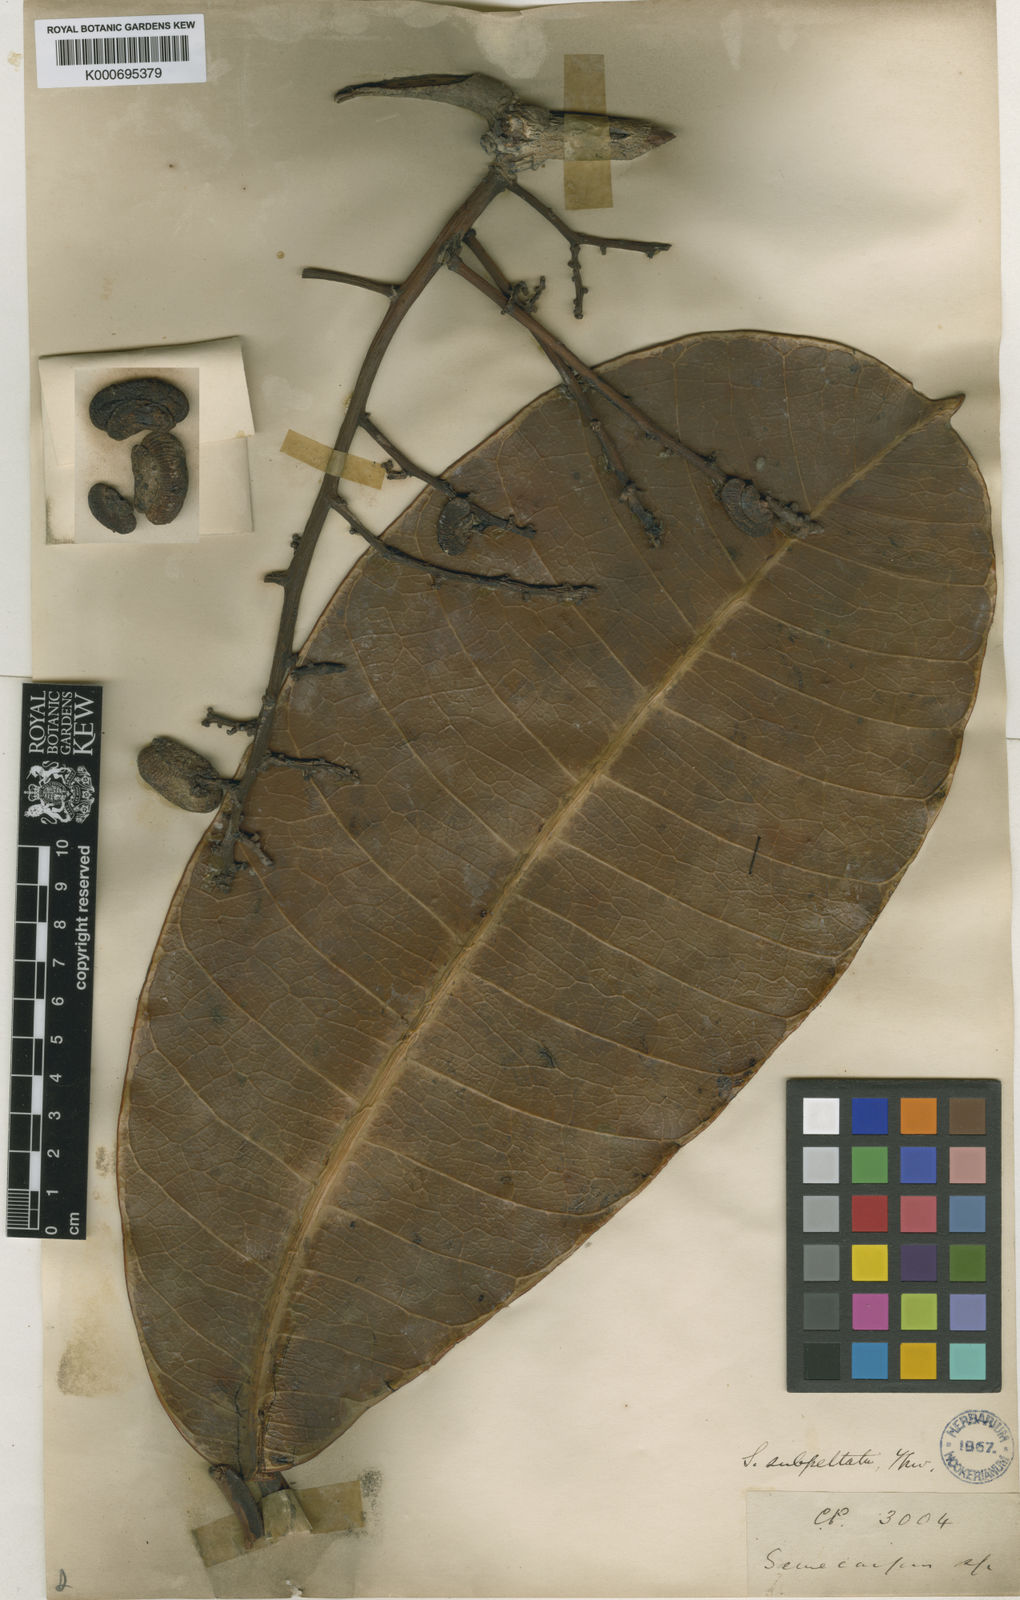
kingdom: Plantae
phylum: Tracheophyta
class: Magnoliopsida
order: Sapindales
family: Anacardiaceae
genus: Semecarpus
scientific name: Semecarpus subpeltatus
